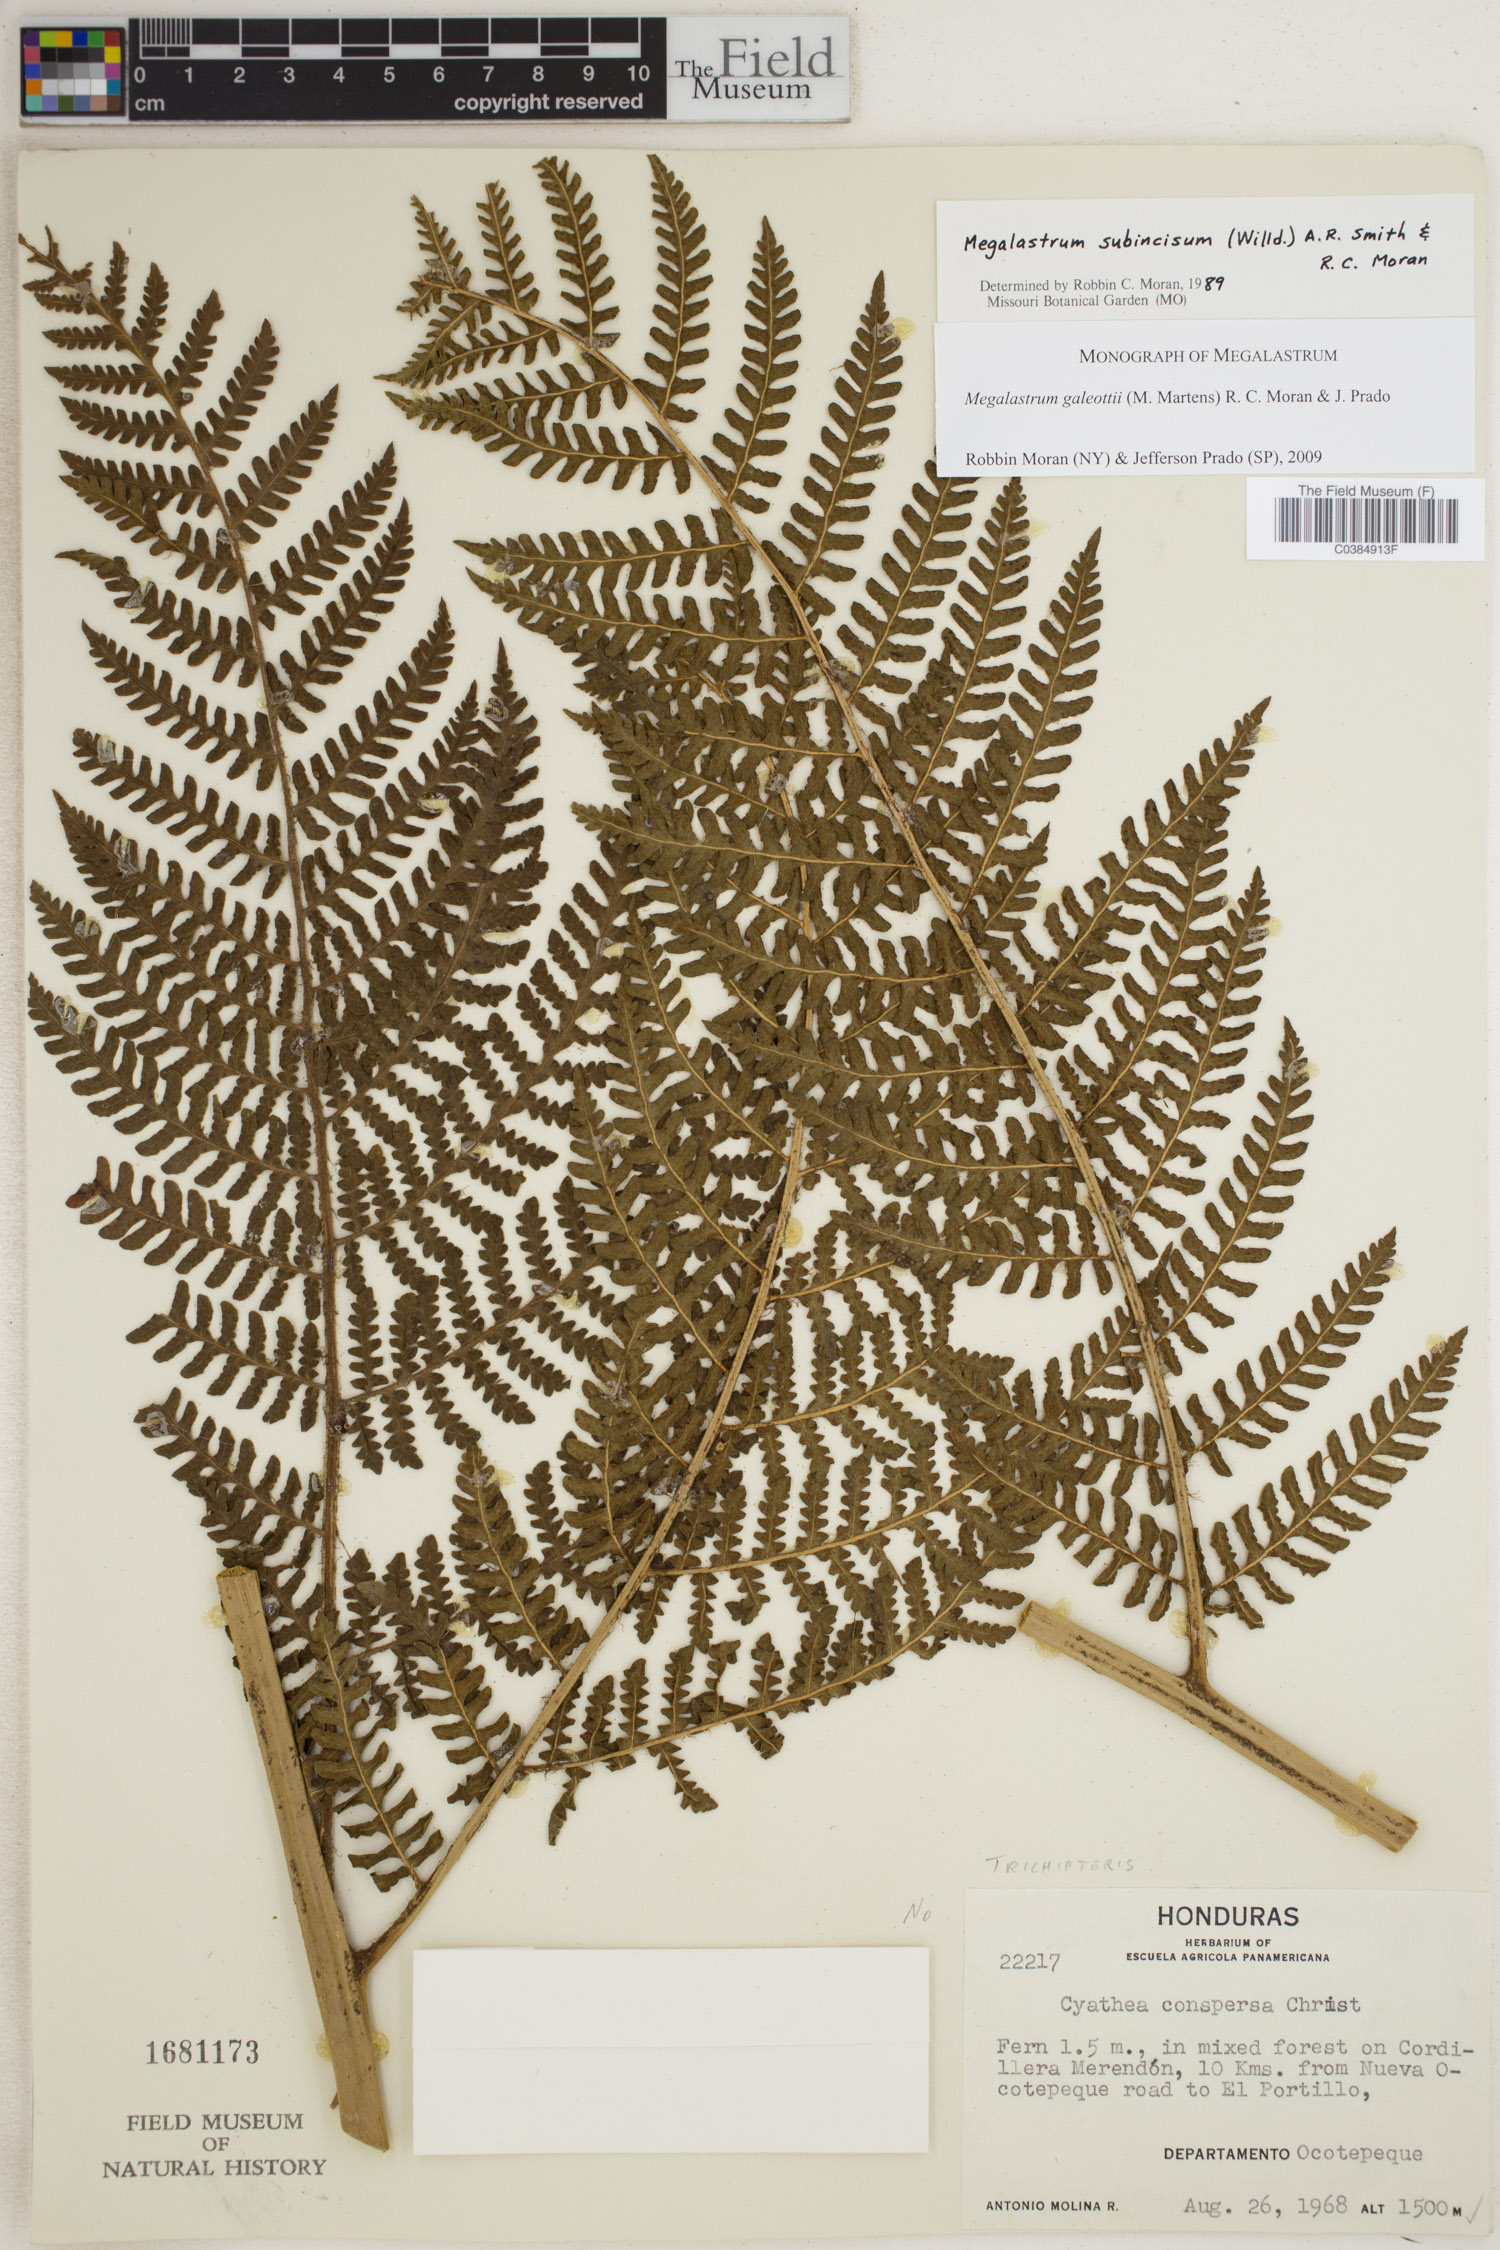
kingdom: Plantae
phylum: Tracheophyta
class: Polypodiopsida
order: Polypodiales
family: Dryopteridaceae
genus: Megalastrum
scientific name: Megalastrum galeottii
